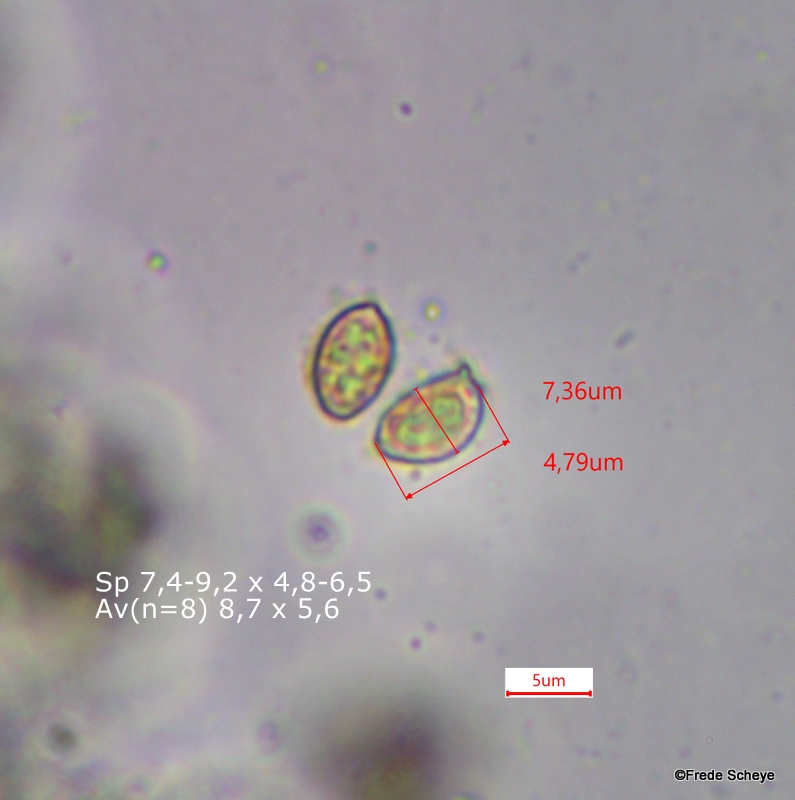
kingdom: Fungi
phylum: Basidiomycota
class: Agaricomycetes
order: Agaricales
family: Hymenogastraceae
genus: Gymnopilus
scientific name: Gymnopilus spectabilis
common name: fibret flammehat
